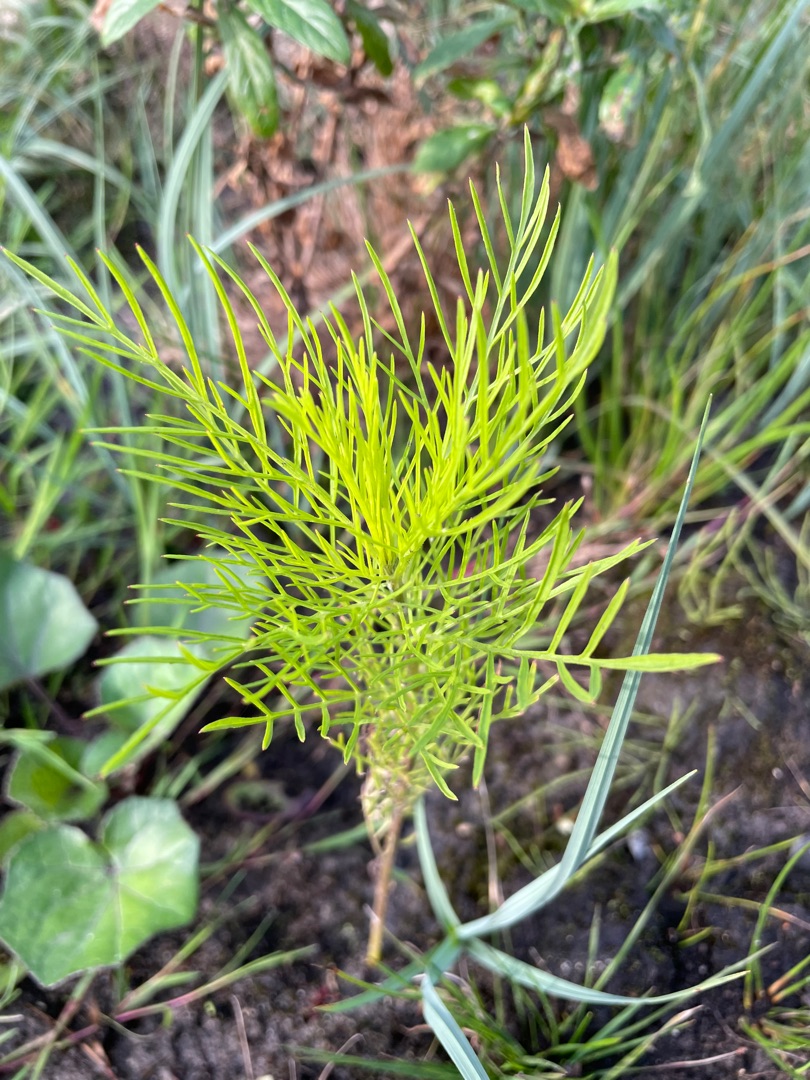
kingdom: Plantae
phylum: Tracheophyta
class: Magnoliopsida
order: Asterales
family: Asteraceae
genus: Cosmos
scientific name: Cosmos bipinnatus
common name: Stolt kavaler
